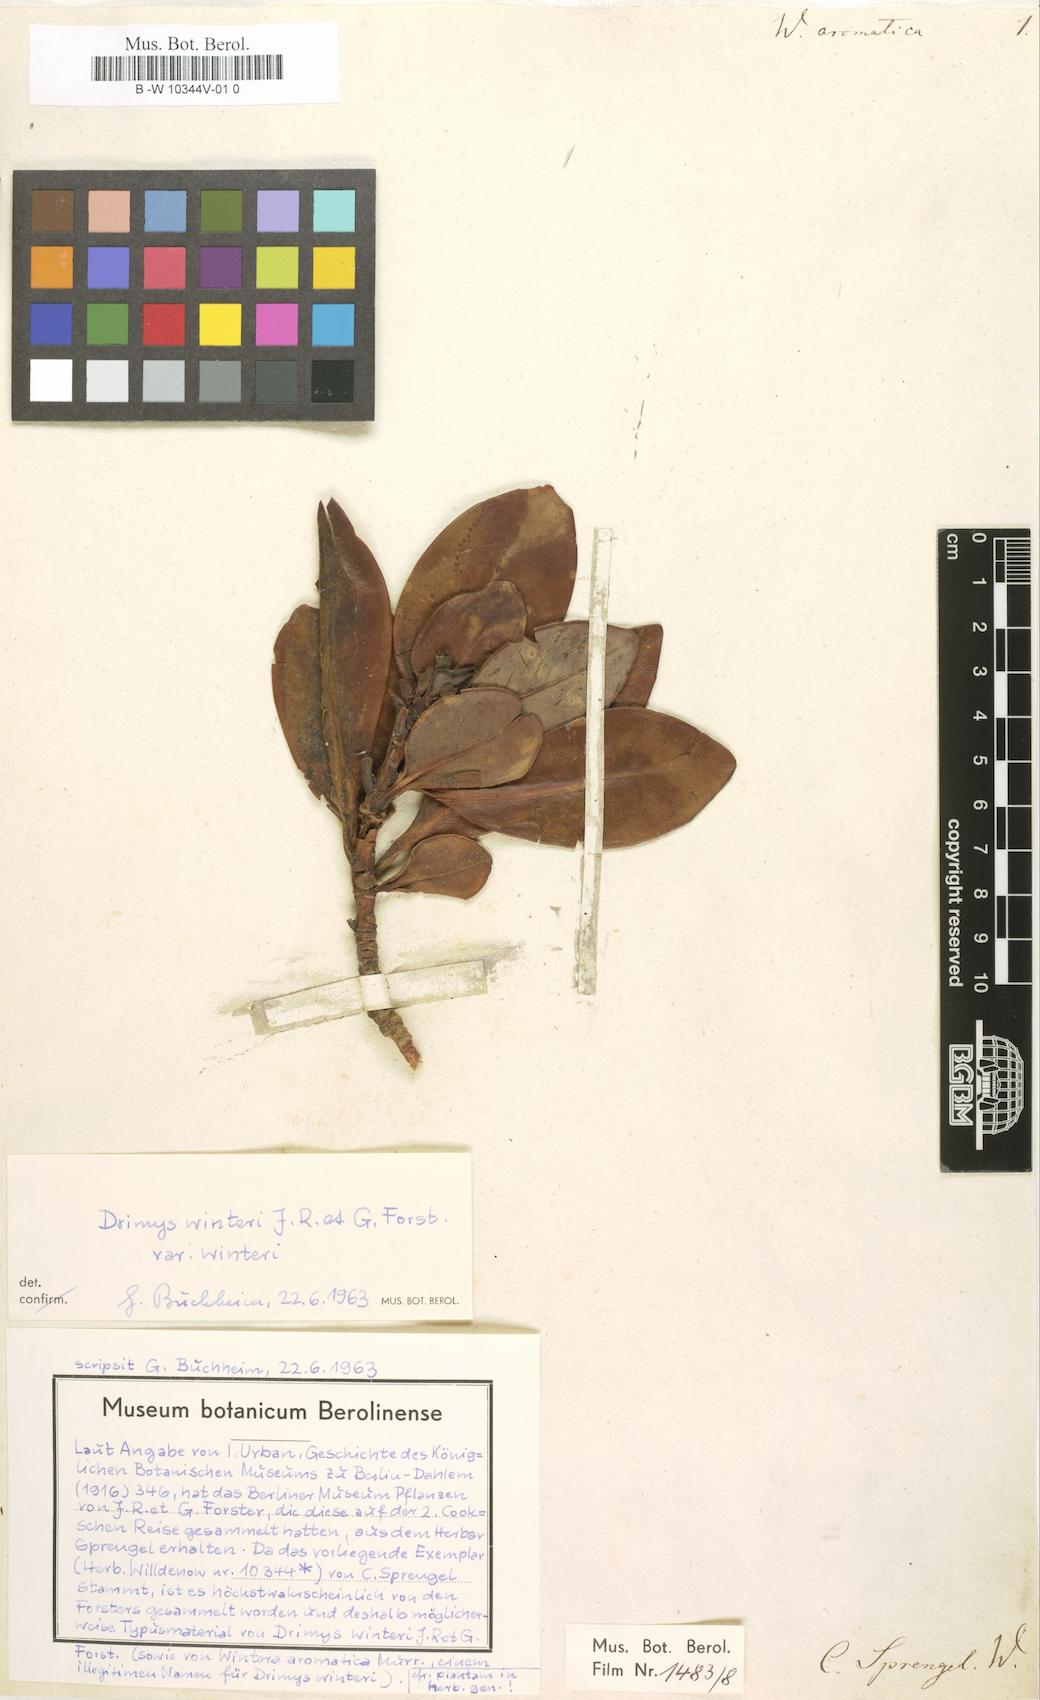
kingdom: Plantae
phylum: Tracheophyta
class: Magnoliopsida
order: Canellales
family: Winteraceae
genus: Drimys
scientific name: Drimys winteri
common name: Winter's-bark
